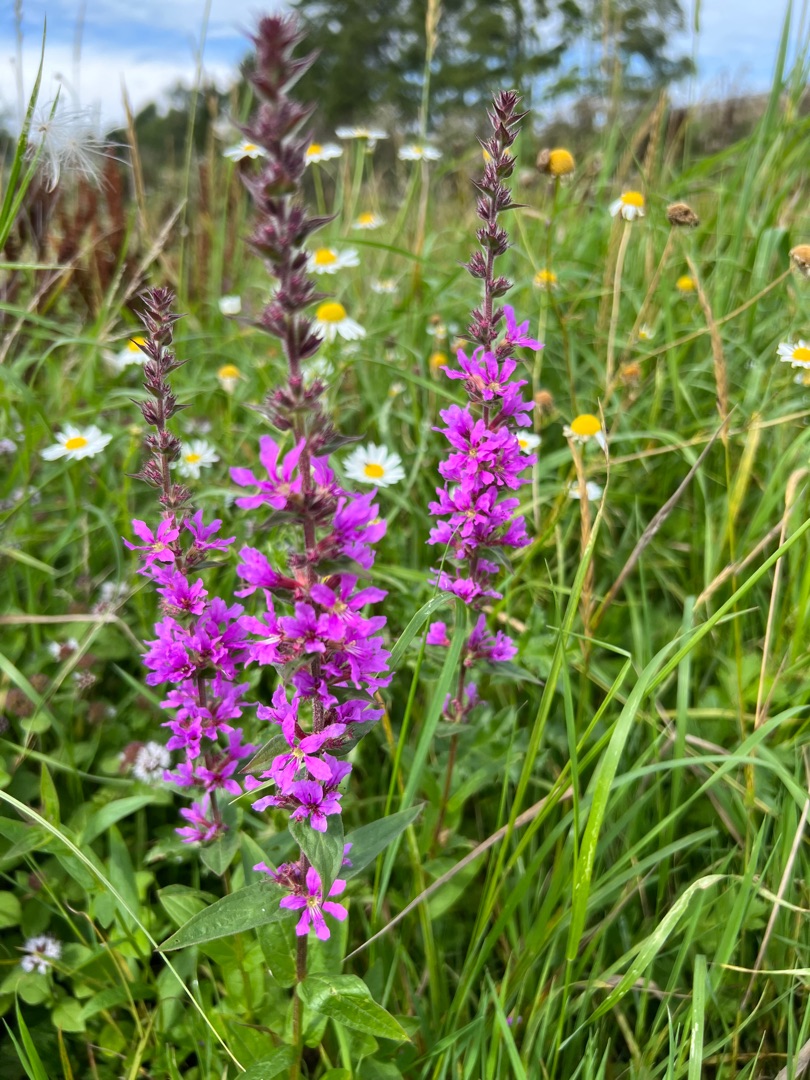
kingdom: Plantae
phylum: Tracheophyta
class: Magnoliopsida
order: Myrtales
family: Lythraceae
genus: Lythrum
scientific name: Lythrum salicaria
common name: Kattehale
